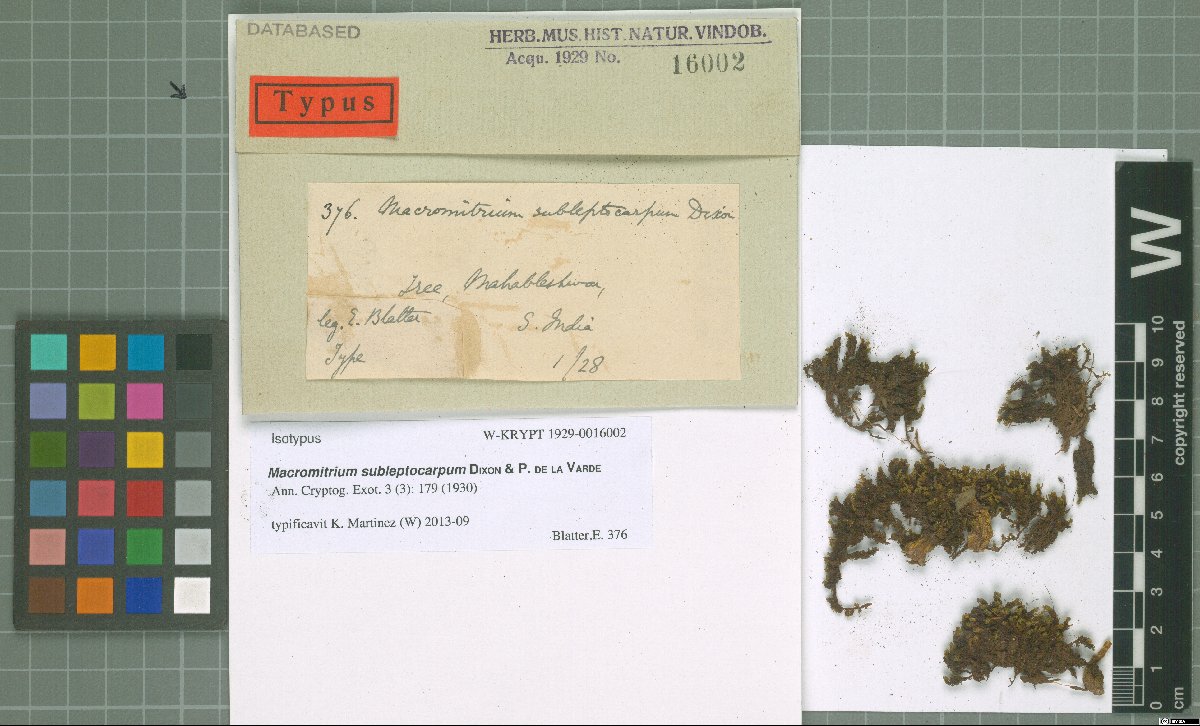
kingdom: Plantae
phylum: Bryophyta
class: Bryopsida
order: Orthotrichales
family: Orthotrichaceae
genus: Macromitrium
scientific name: Macromitrium sulcatum
